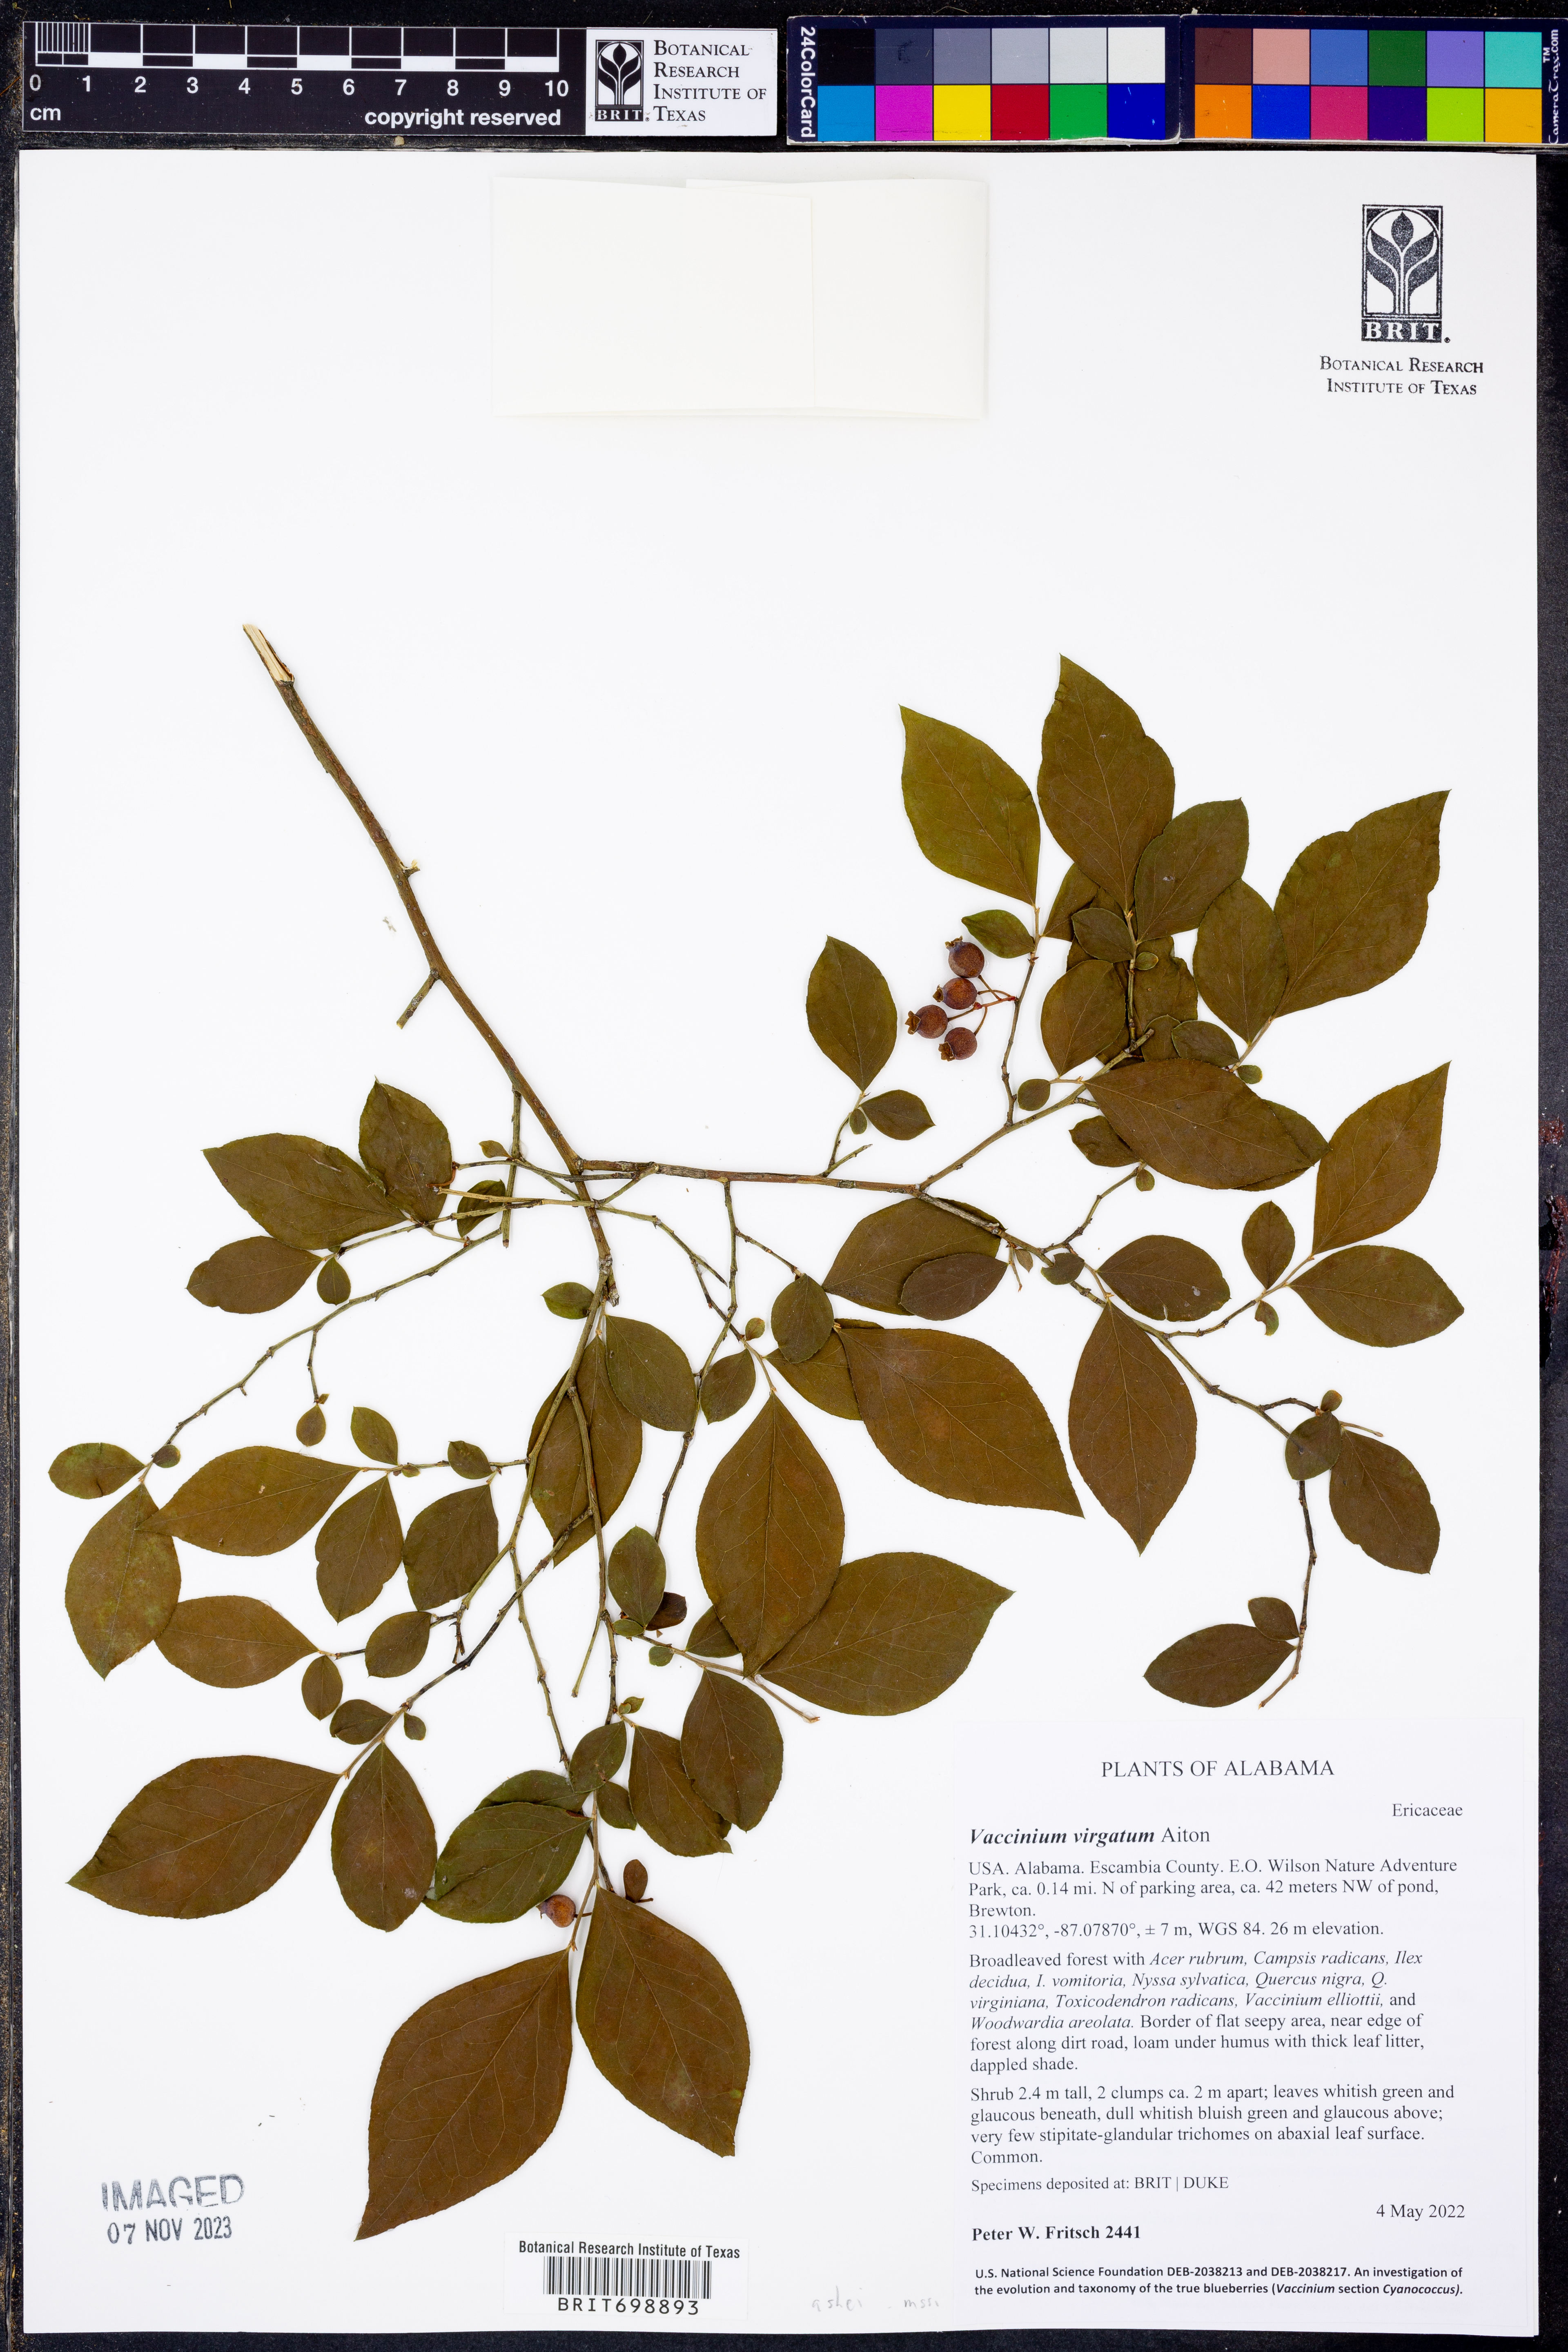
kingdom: Plantae
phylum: Tracheophyta
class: Magnoliopsida
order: Ericales
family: Ericaceae
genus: Vaccinium
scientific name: Vaccinium corymbosum
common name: Blueberry
